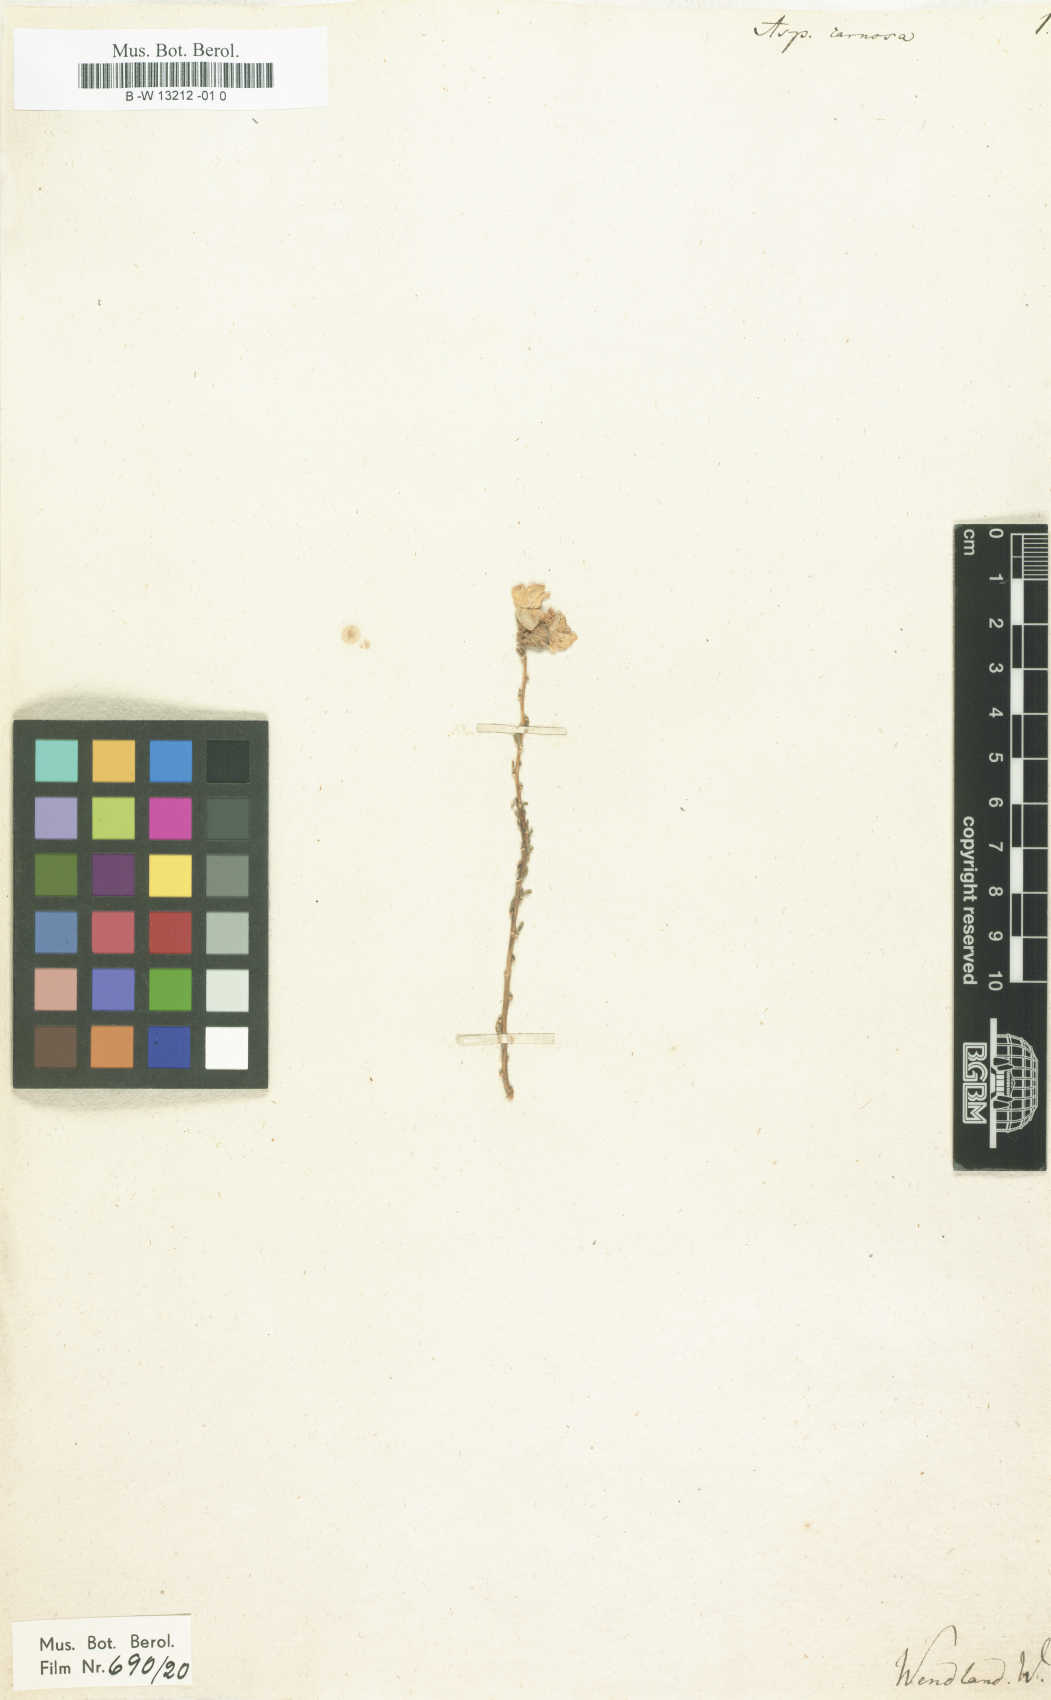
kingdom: Plantae
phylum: Tracheophyta
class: Magnoliopsida
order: Fabales
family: Fabaceae
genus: Aspalathus
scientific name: Aspalathus carnosa
